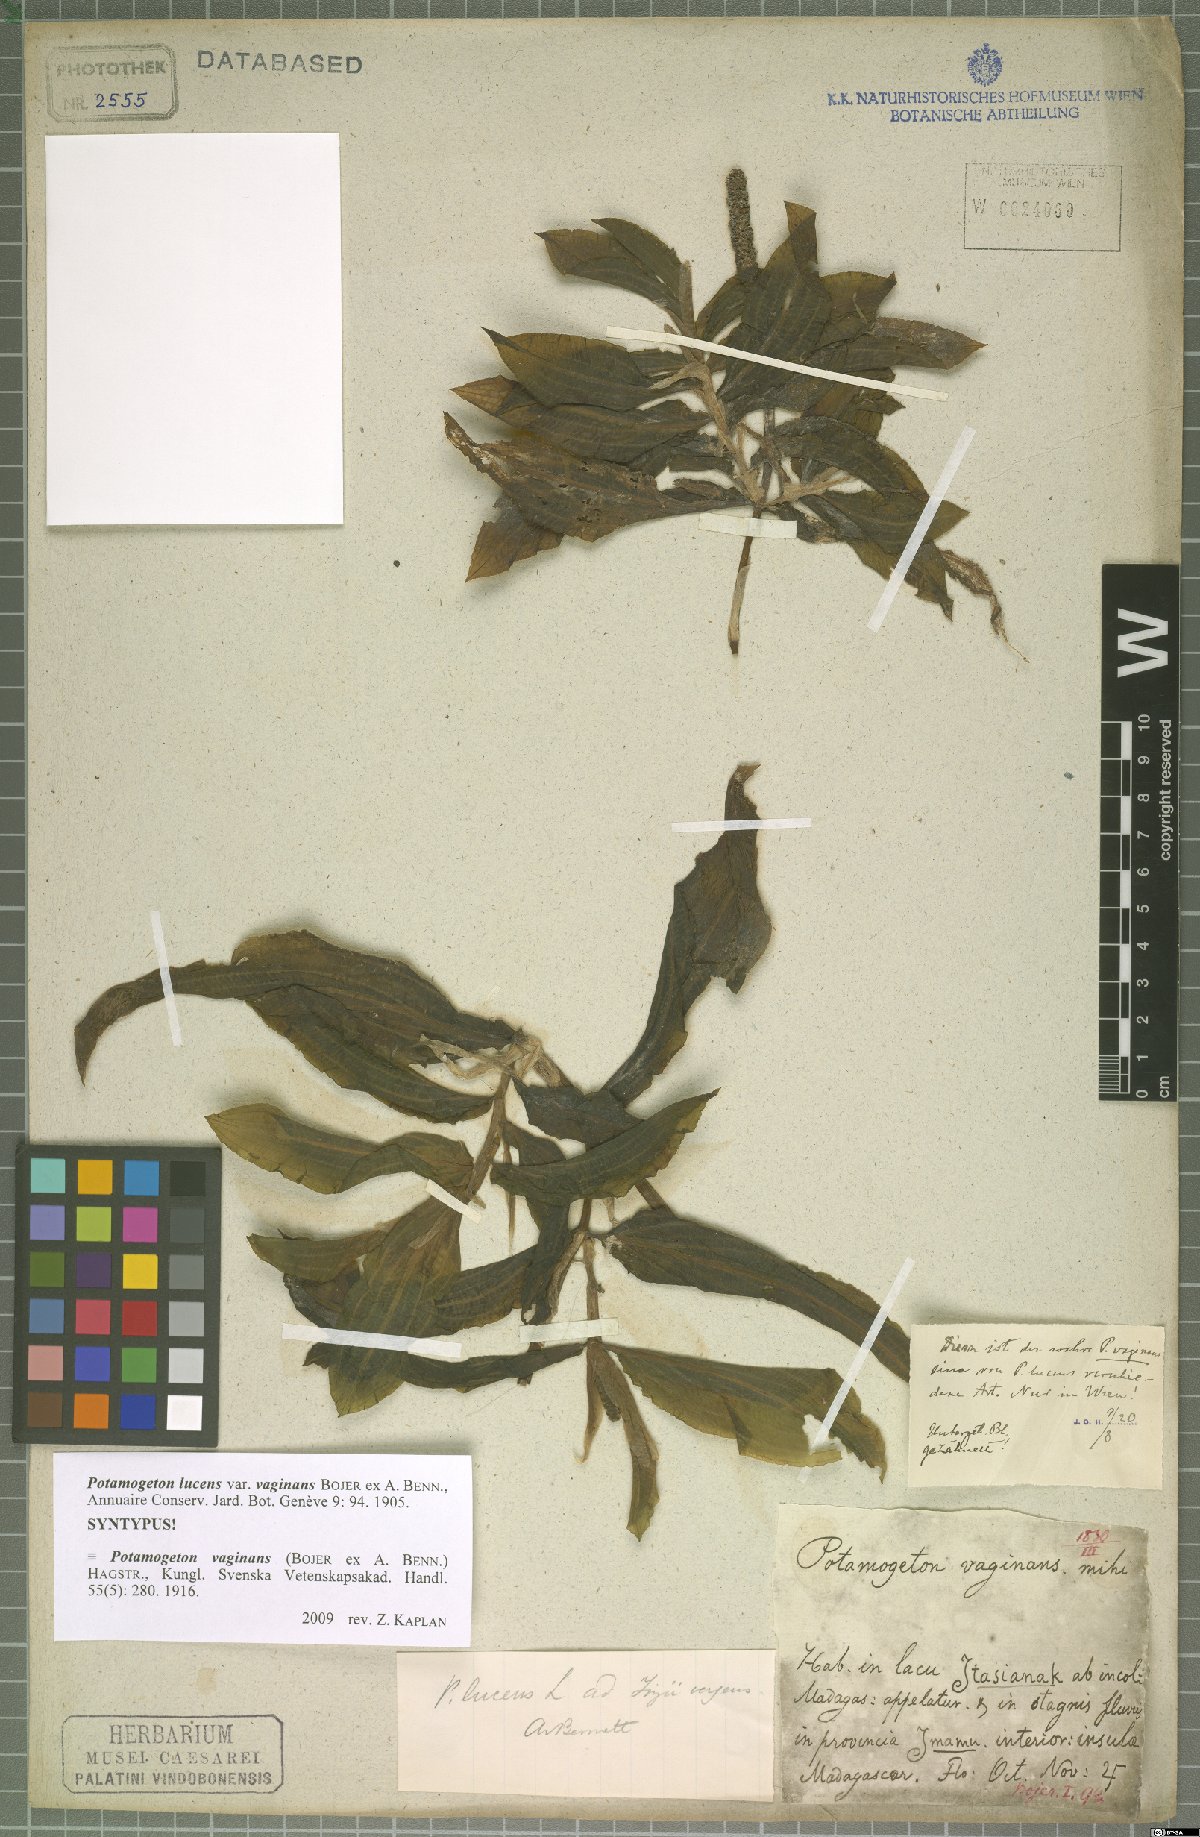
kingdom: Plantae
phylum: Tracheophyta
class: Liliopsida
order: Alismatales
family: Potamogetonaceae
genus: Potamogeton
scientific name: Potamogeton lucens
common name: Shining pondweed
